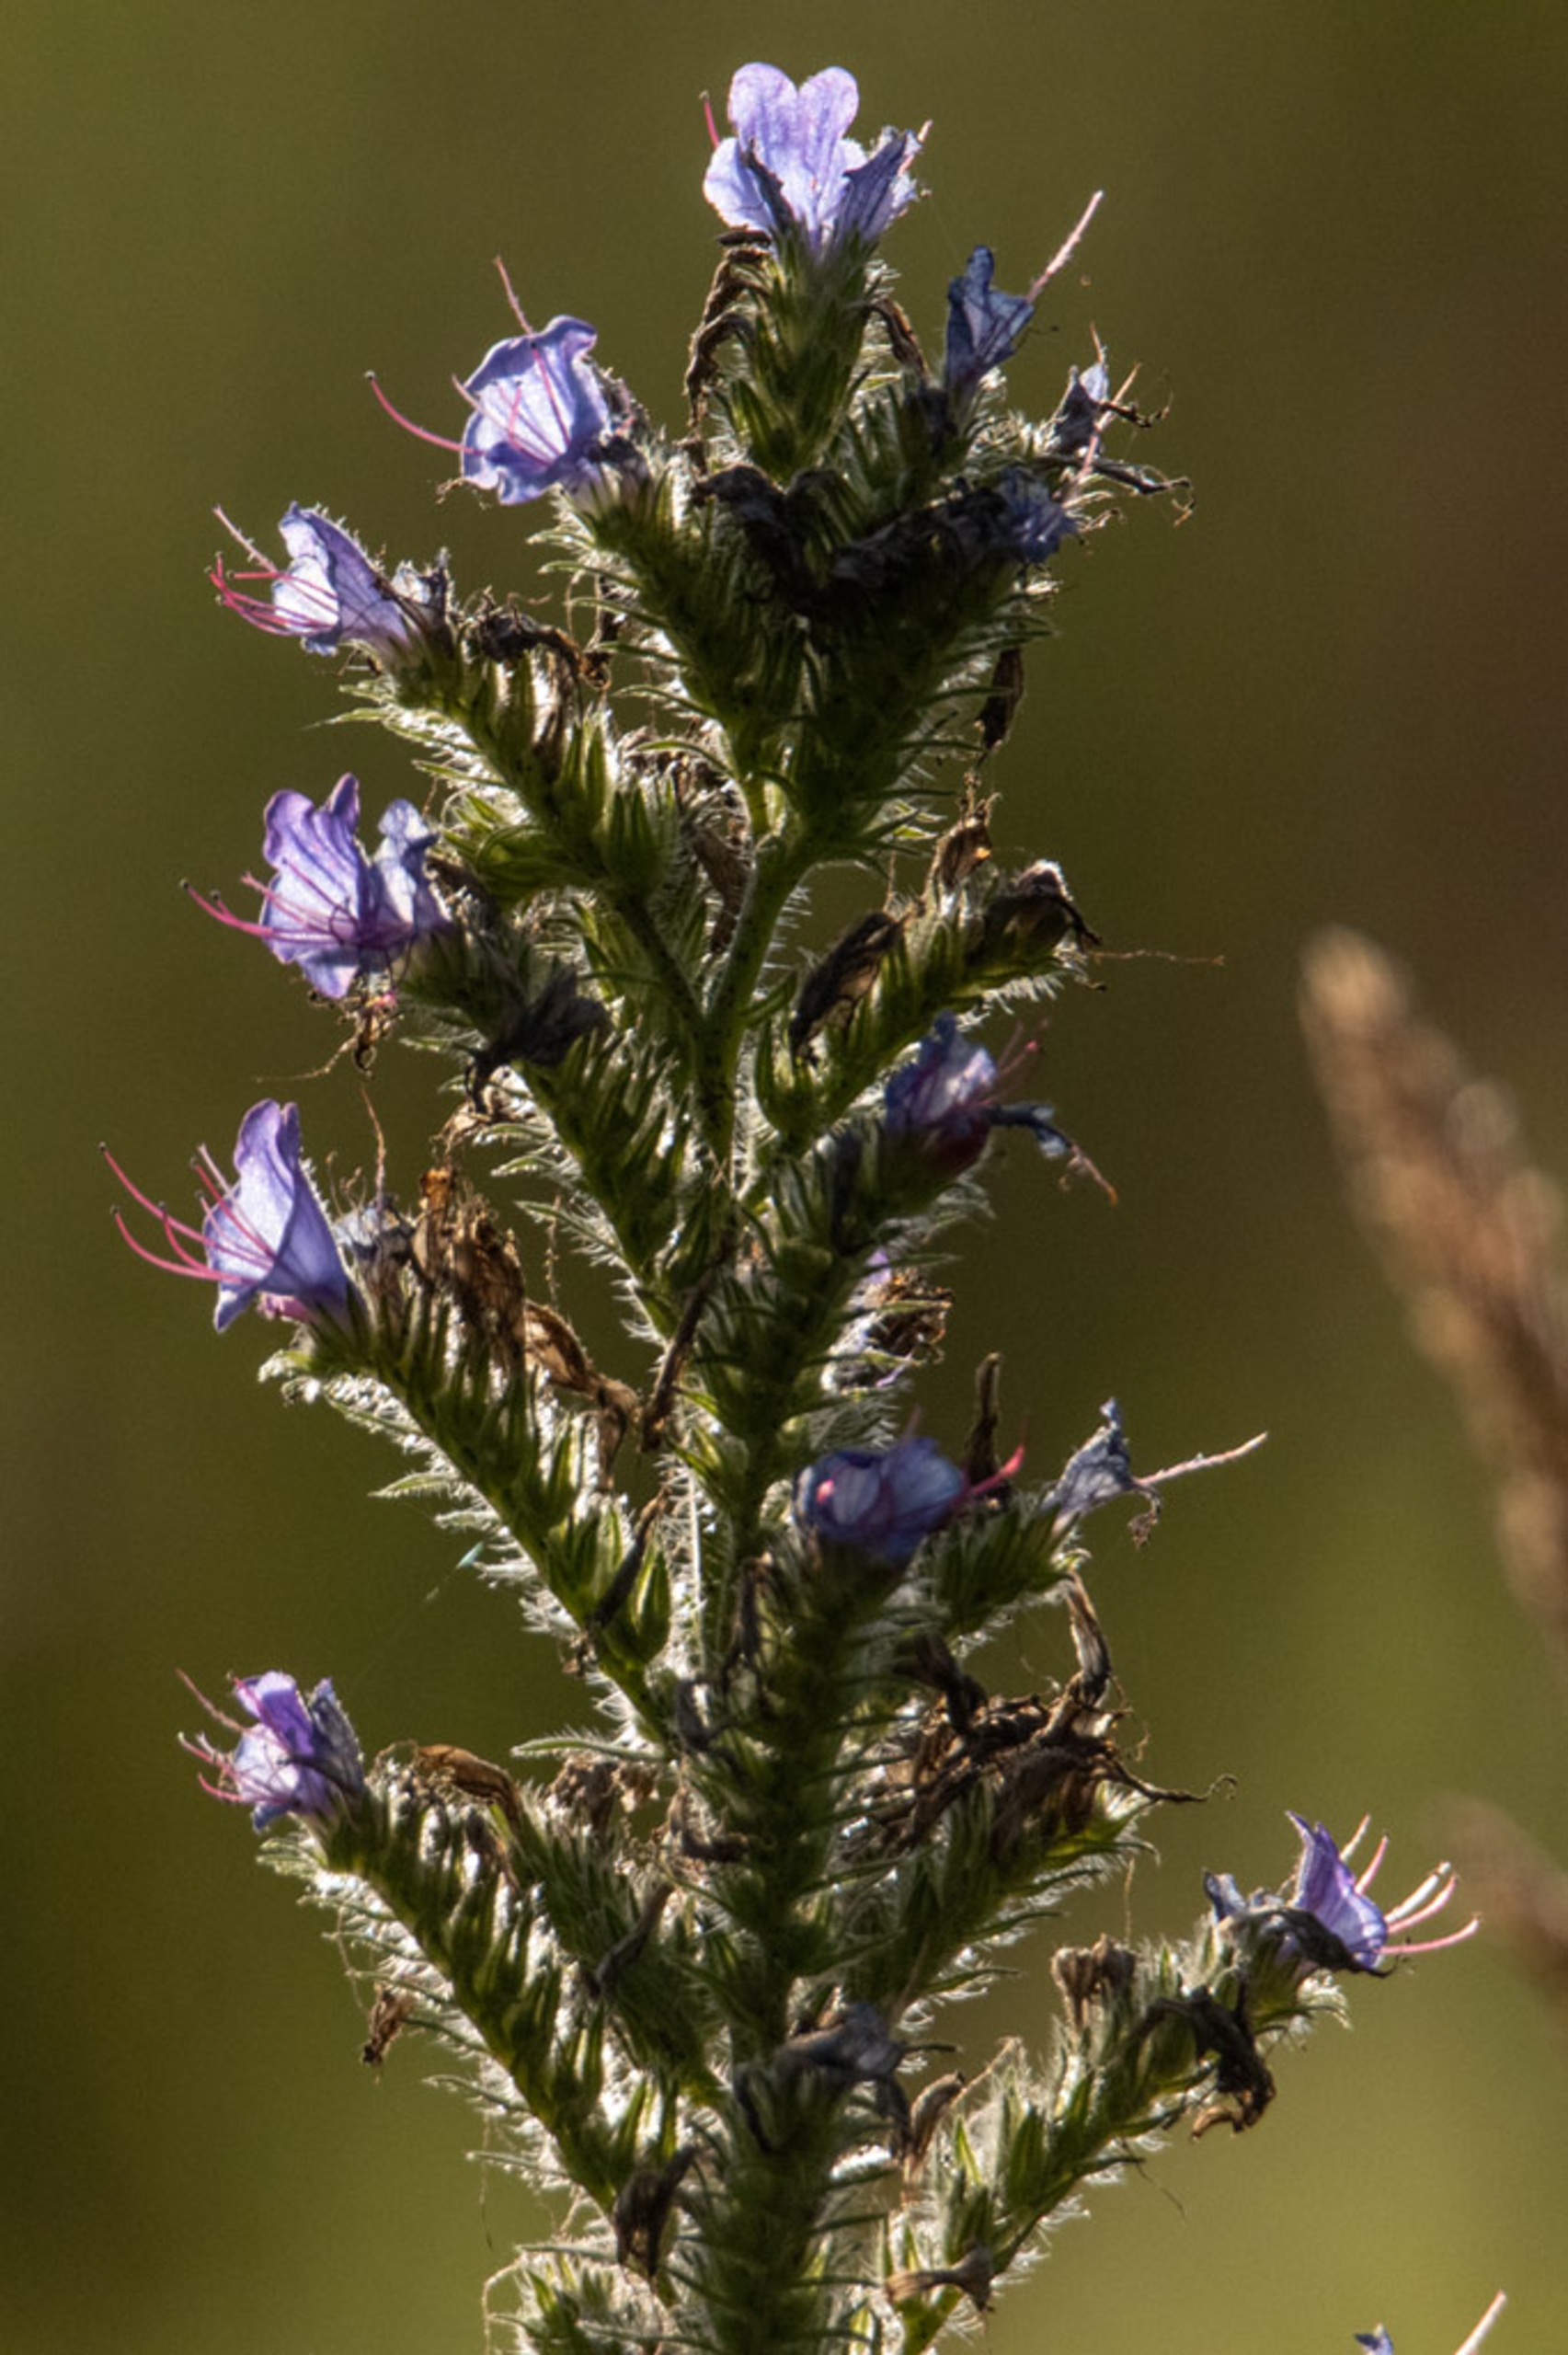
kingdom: Plantae
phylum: Tracheophyta
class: Magnoliopsida
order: Boraginales
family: Boraginaceae
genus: Echium
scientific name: Echium vulgare
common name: Slangehoved
